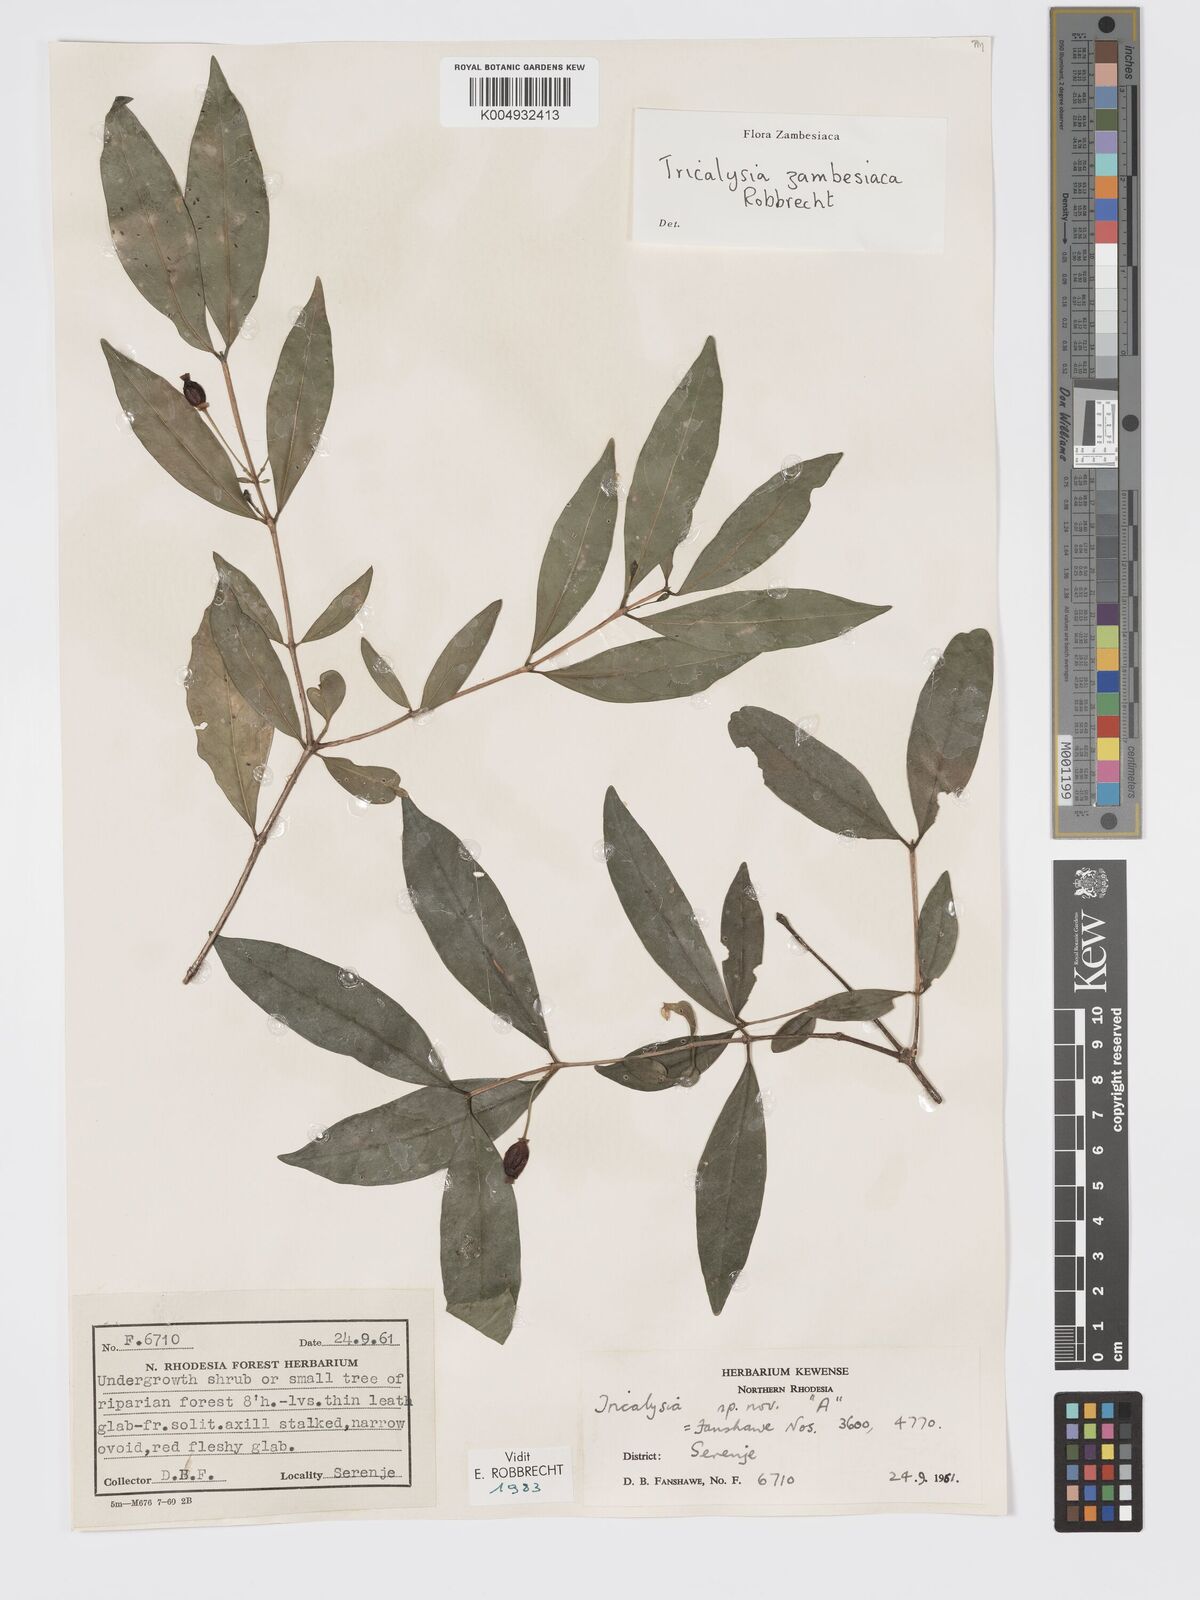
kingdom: Plantae
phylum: Tracheophyta
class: Magnoliopsida
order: Gentianales
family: Rubiaceae
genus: Tricalysia
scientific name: Tricalysia
